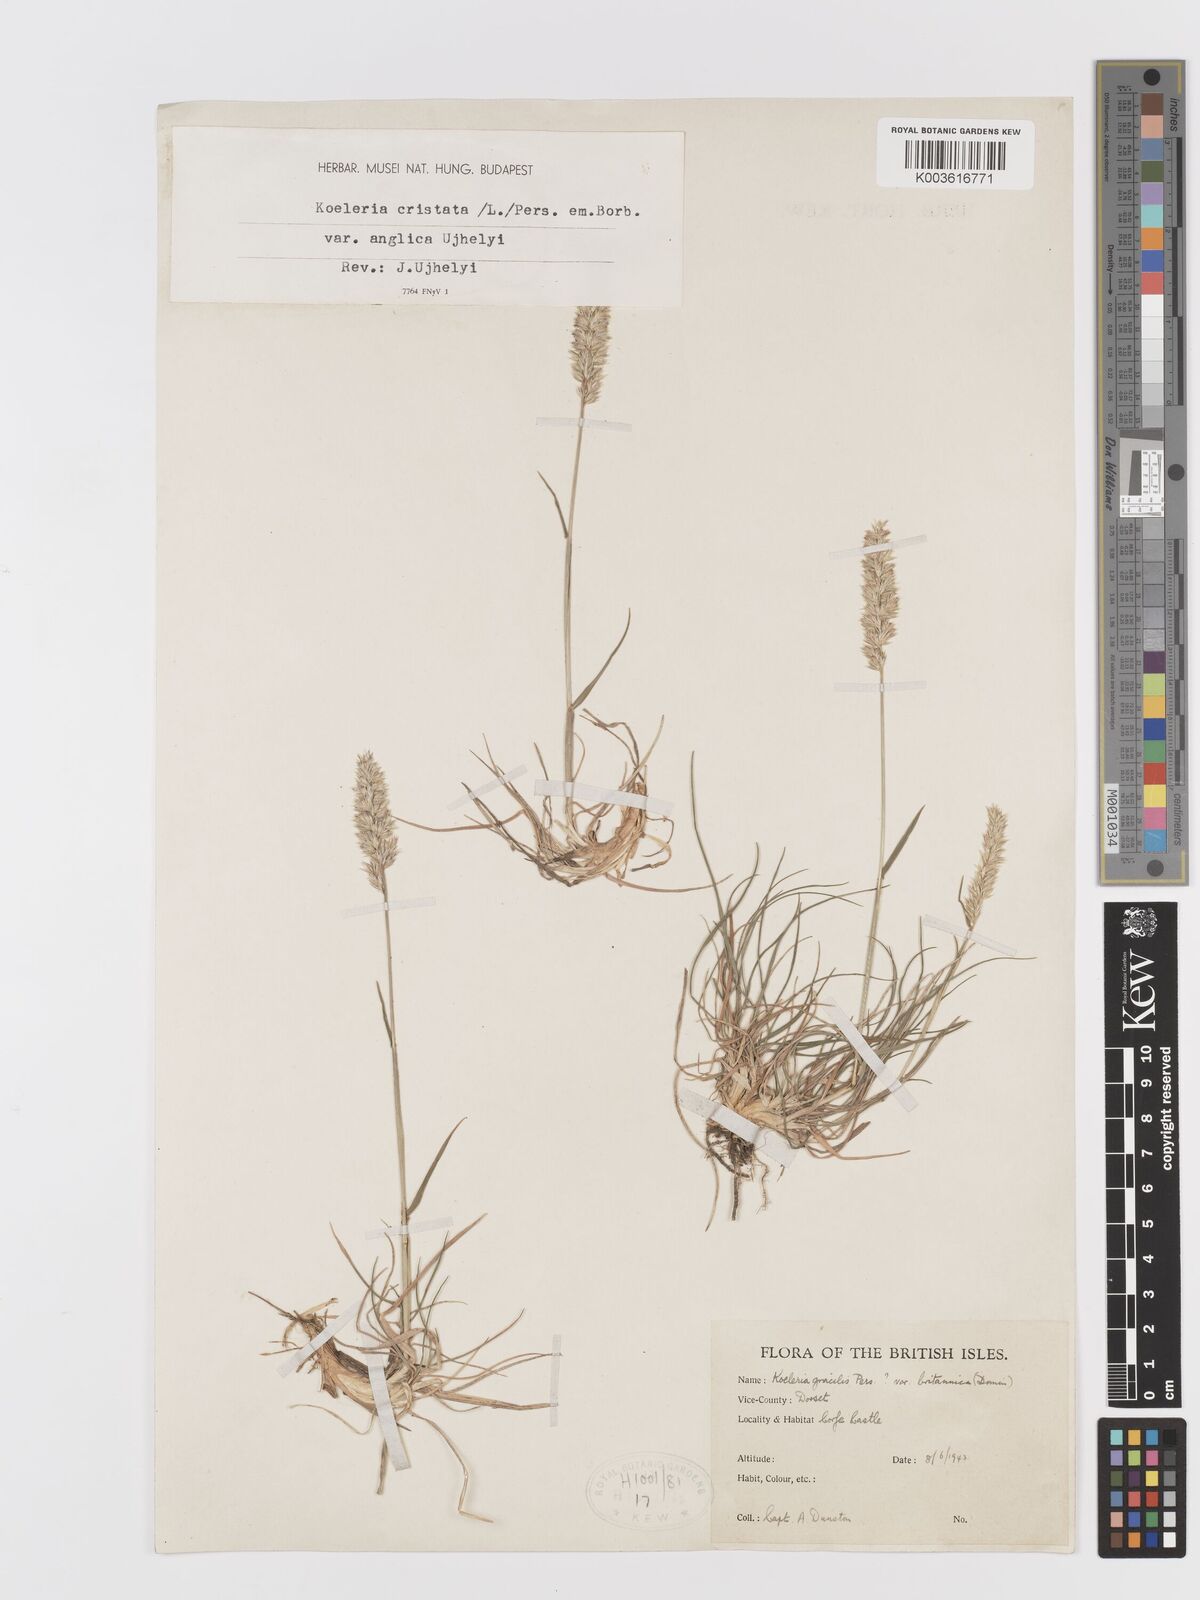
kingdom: Plantae
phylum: Tracheophyta
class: Liliopsida
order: Poales
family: Poaceae
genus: Koeleria
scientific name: Koeleria
